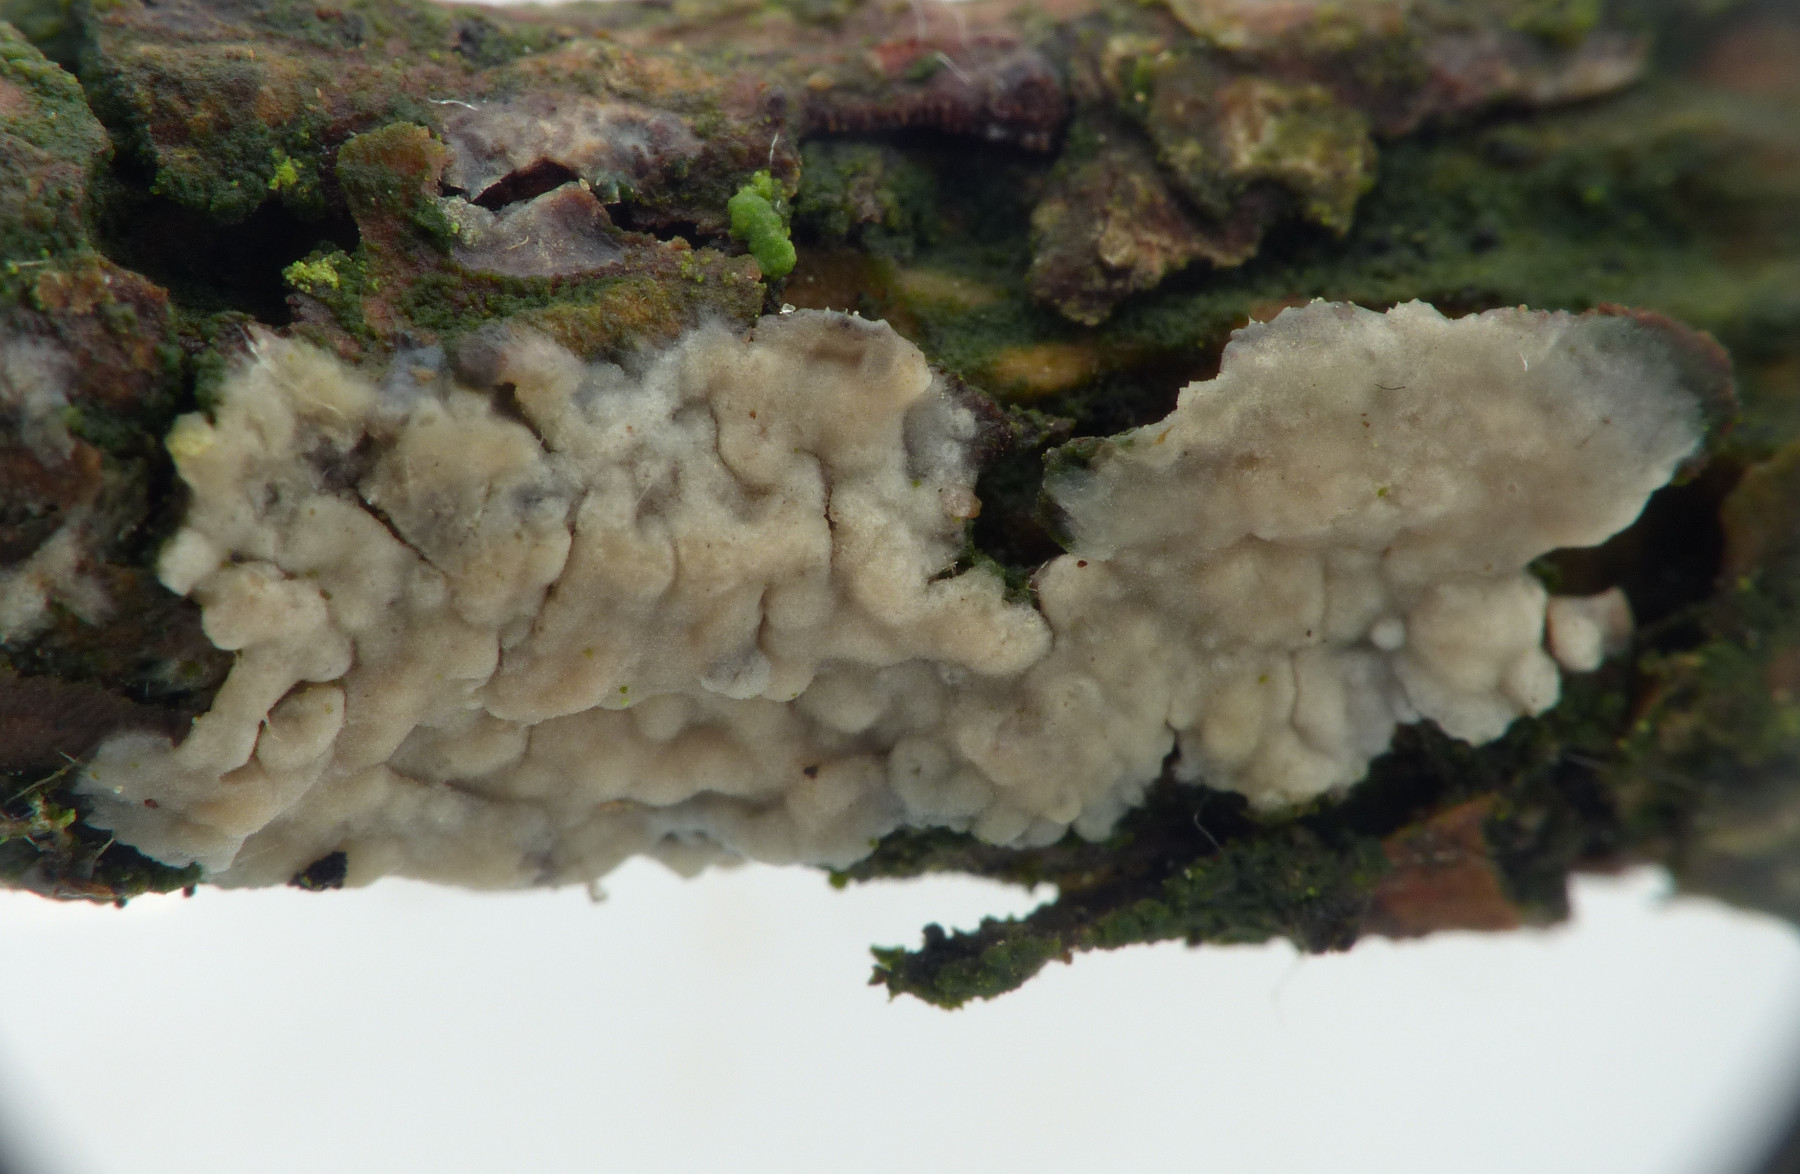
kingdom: Fungi
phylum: Basidiomycota
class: Agaricomycetes
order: Corticiales
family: Corticiaceae
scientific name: Corticiaceae
